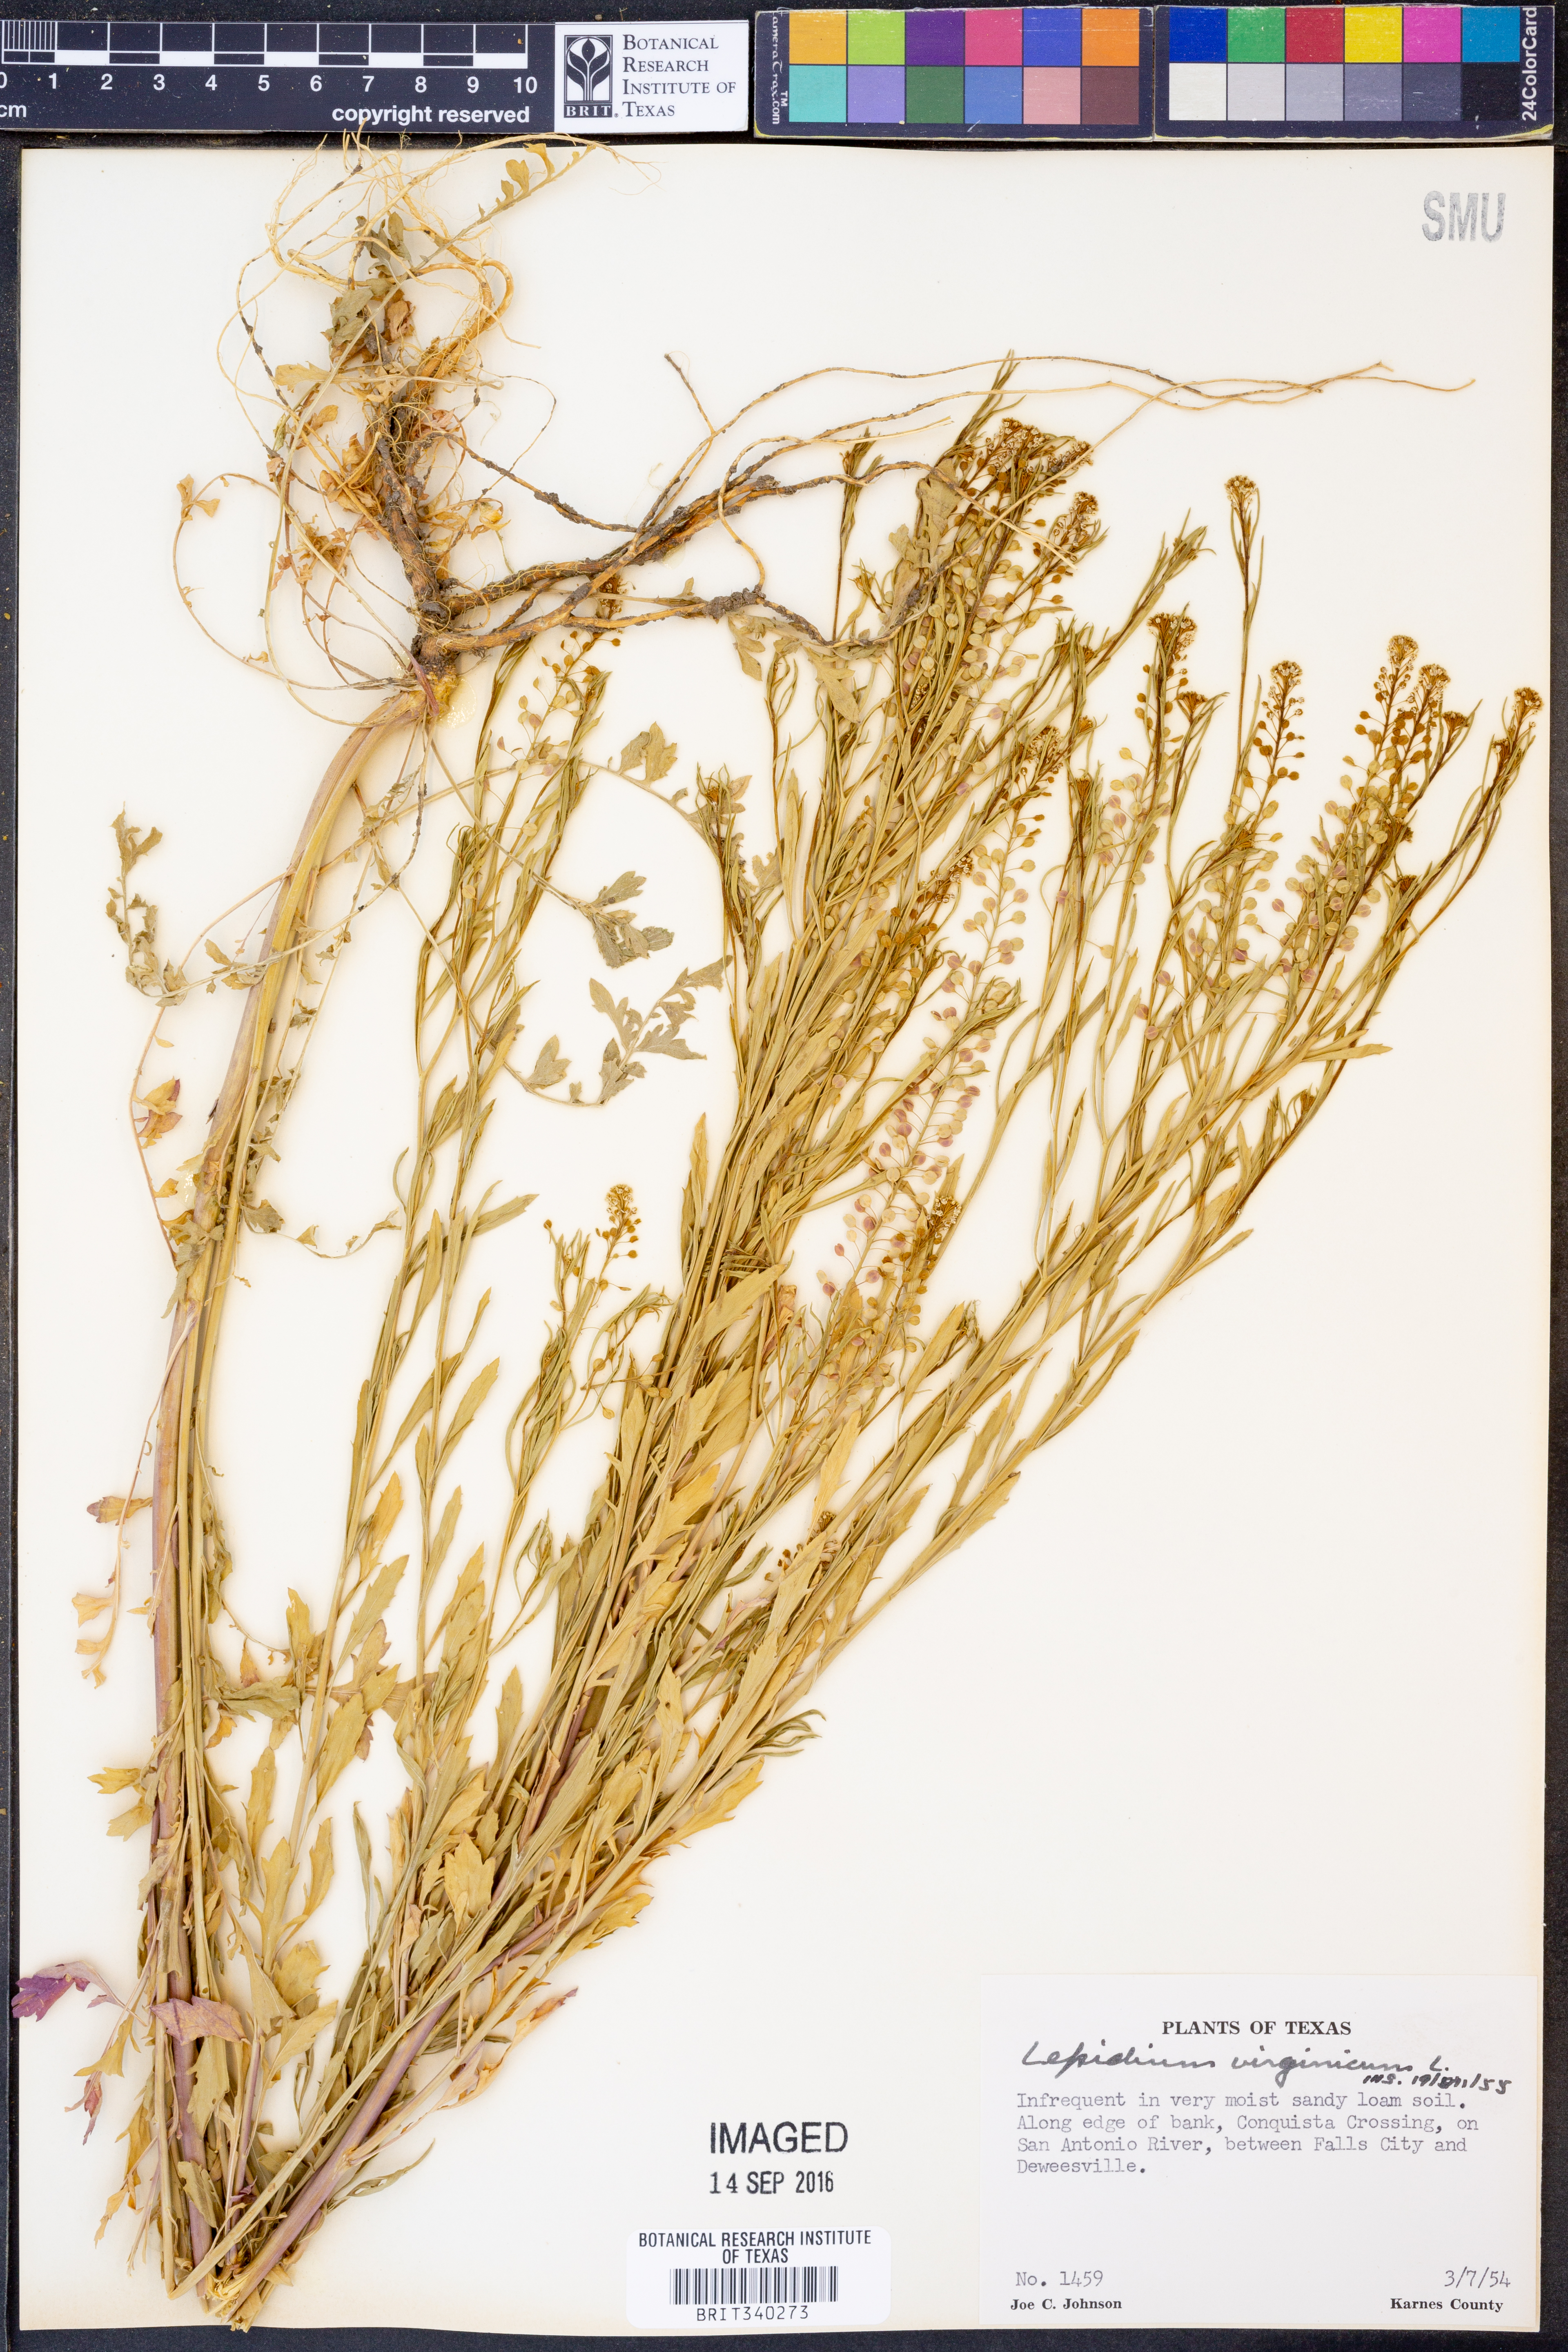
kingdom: Plantae
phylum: Tracheophyta
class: Magnoliopsida
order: Brassicales
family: Brassicaceae
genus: Lepidium
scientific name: Lepidium virginicum
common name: Least pepperwort
